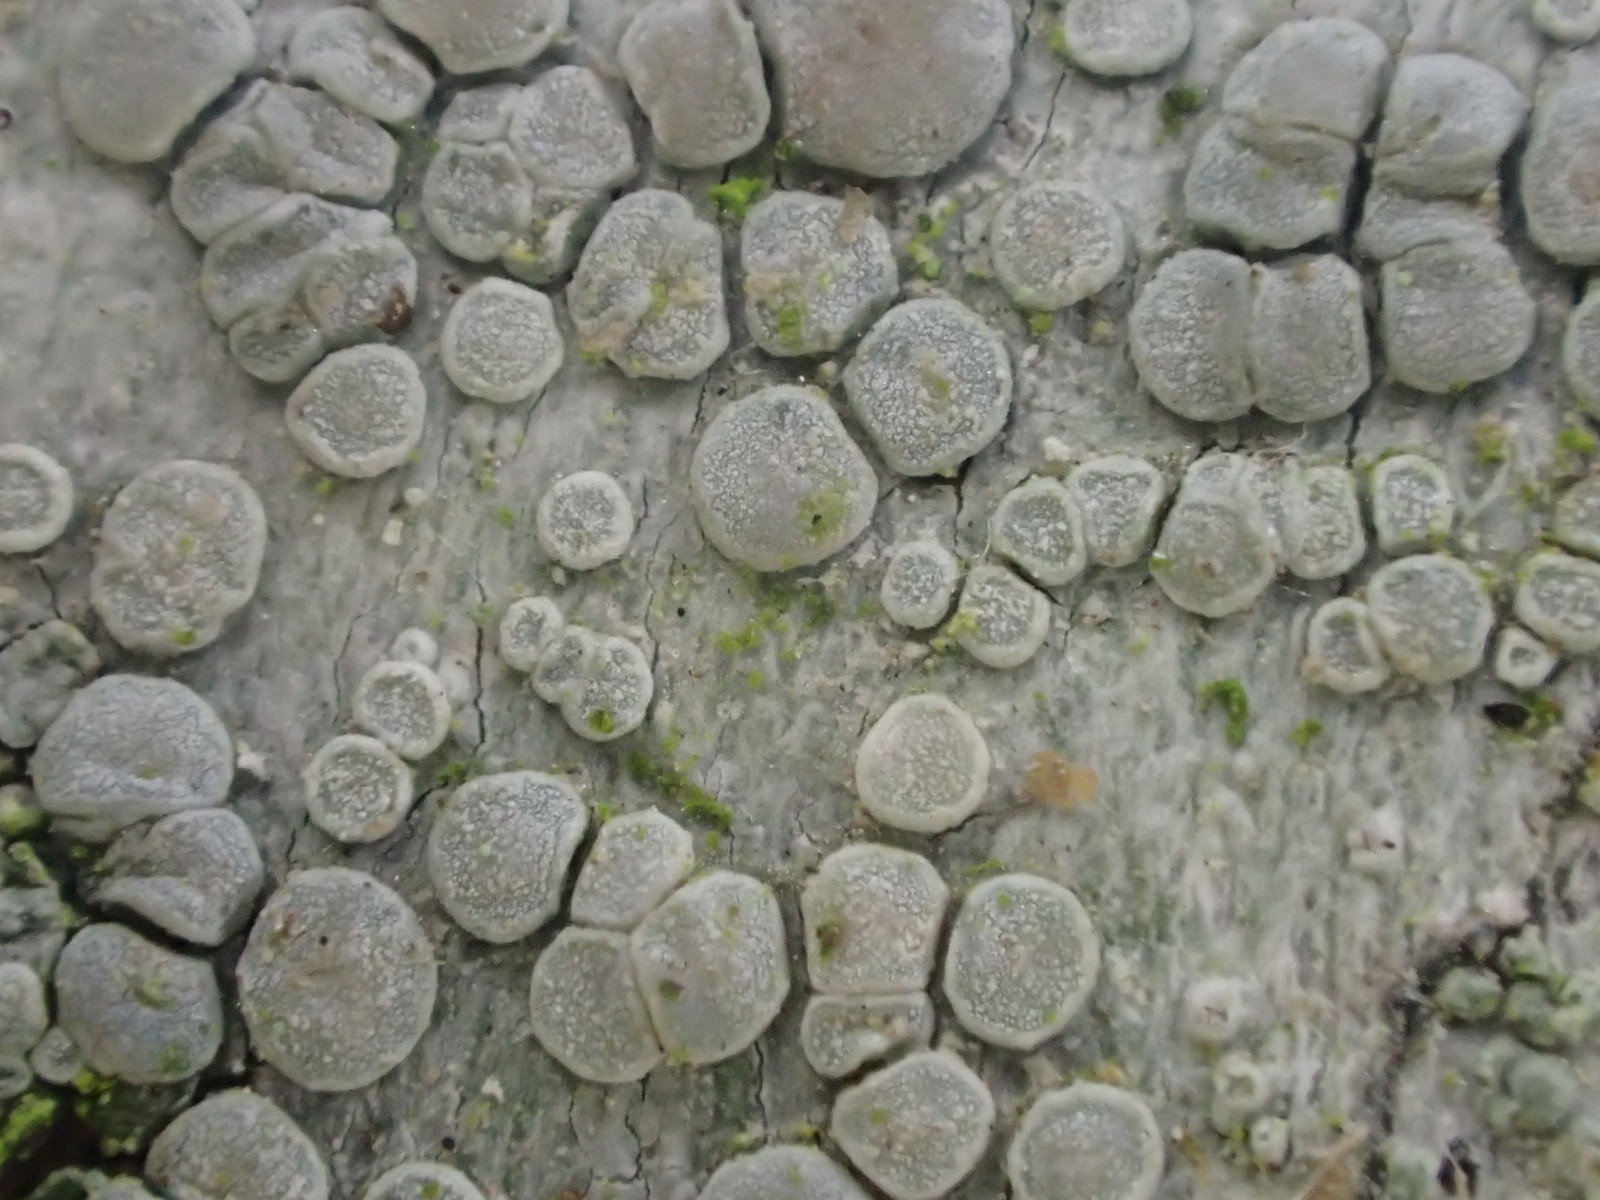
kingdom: Fungi
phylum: Ascomycota
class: Lecanoromycetes
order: Lecanorales
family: Lecanoraceae
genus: Glaucomaria
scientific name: Glaucomaria carpinea
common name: hviddugget kantskivelav
